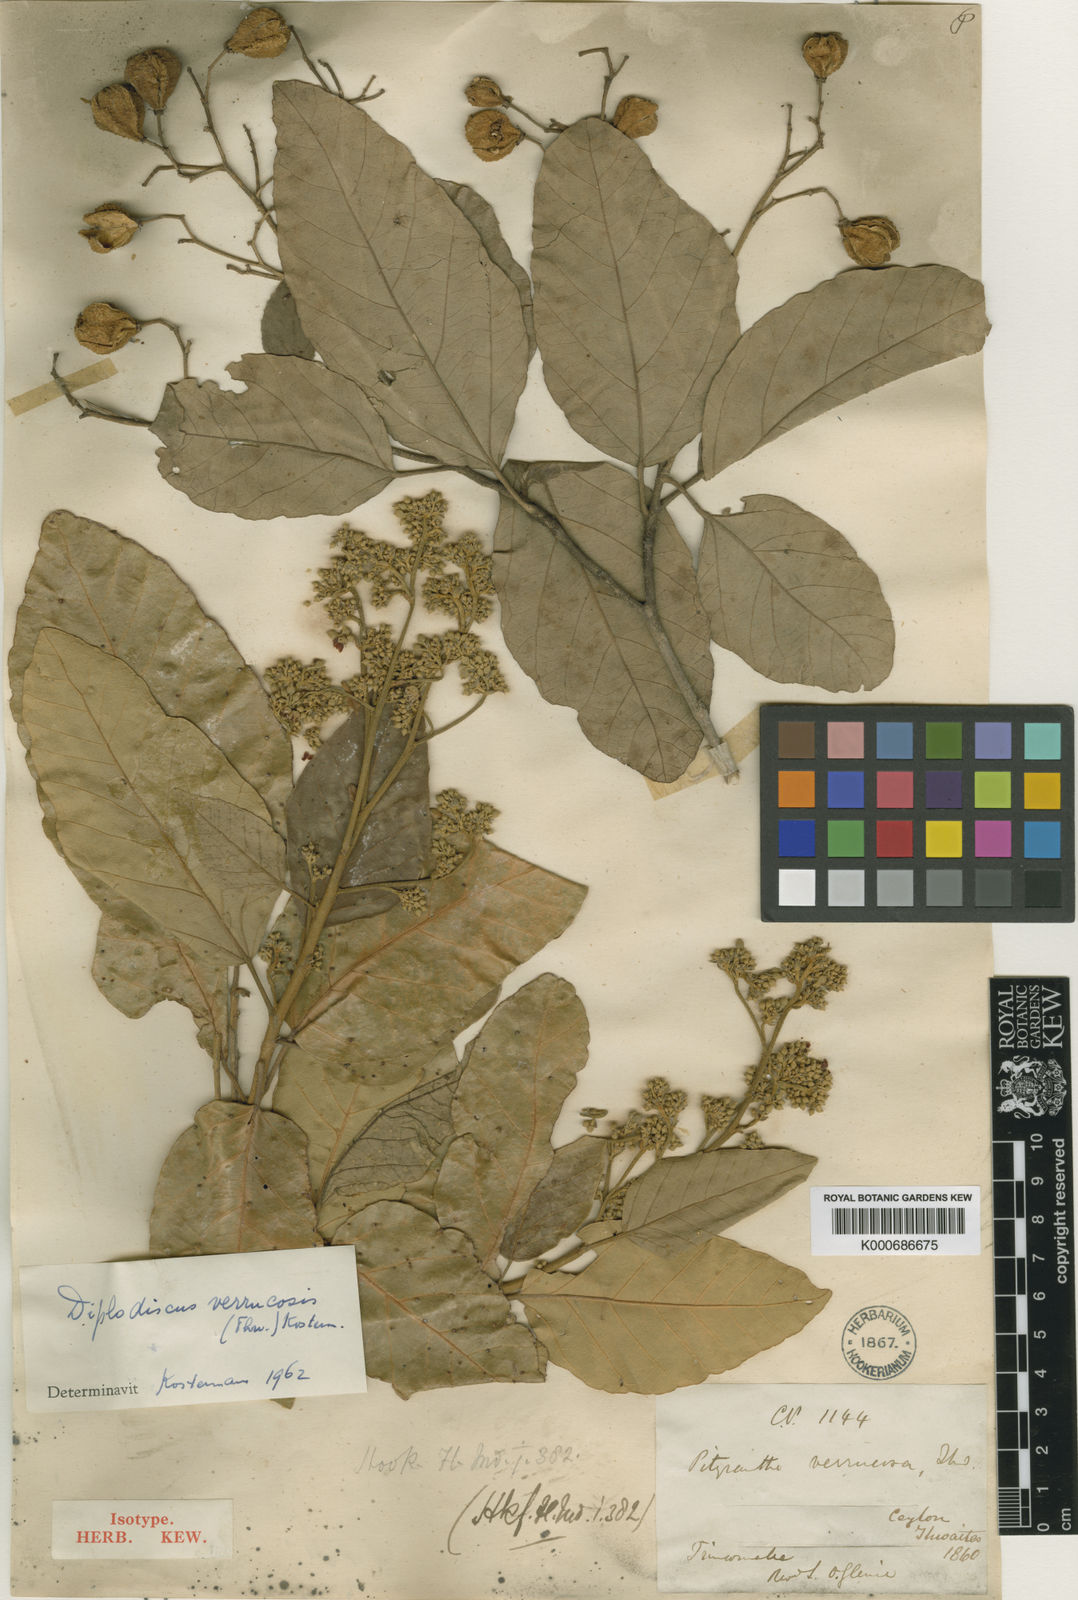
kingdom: Plantae
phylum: Tracheophyta
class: Magnoliopsida
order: Malvales
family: Malvaceae
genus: Pityranthe
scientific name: Pityranthe verrucosa
